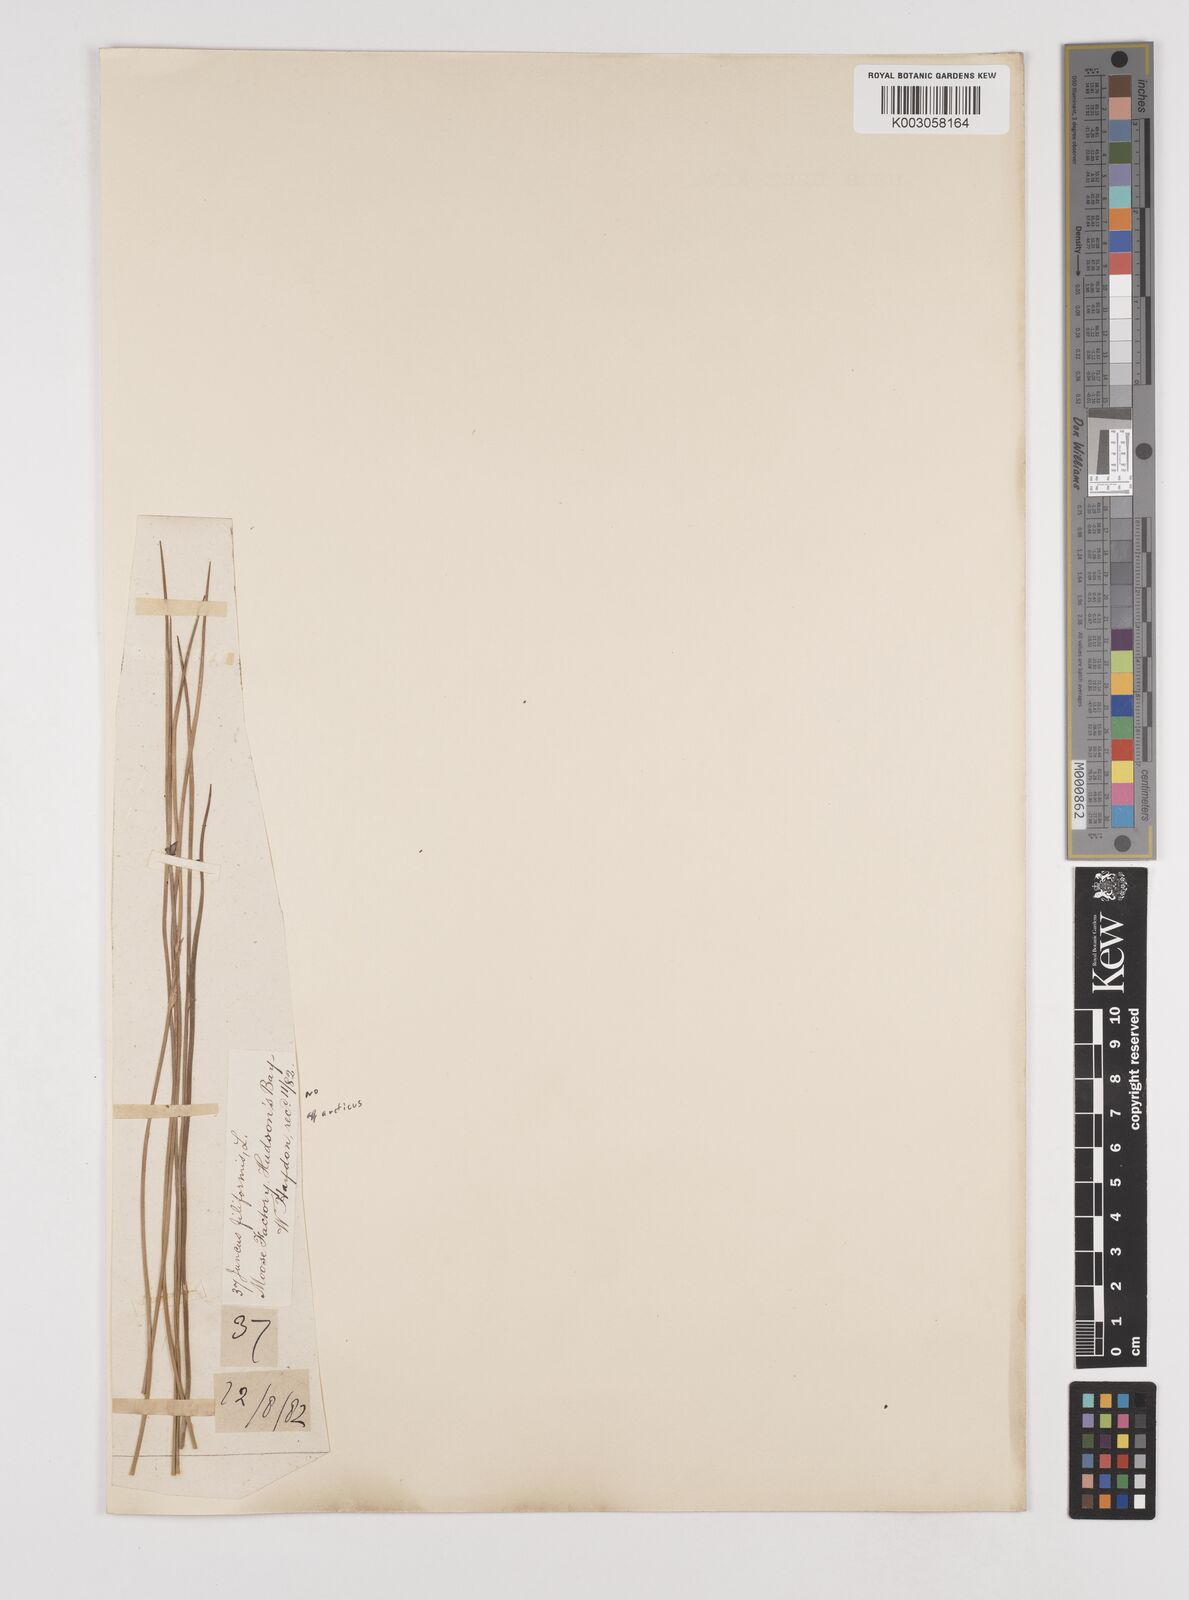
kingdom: Plantae
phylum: Tracheophyta
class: Liliopsida
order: Poales
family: Juncaceae
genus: Juncus
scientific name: Juncus
